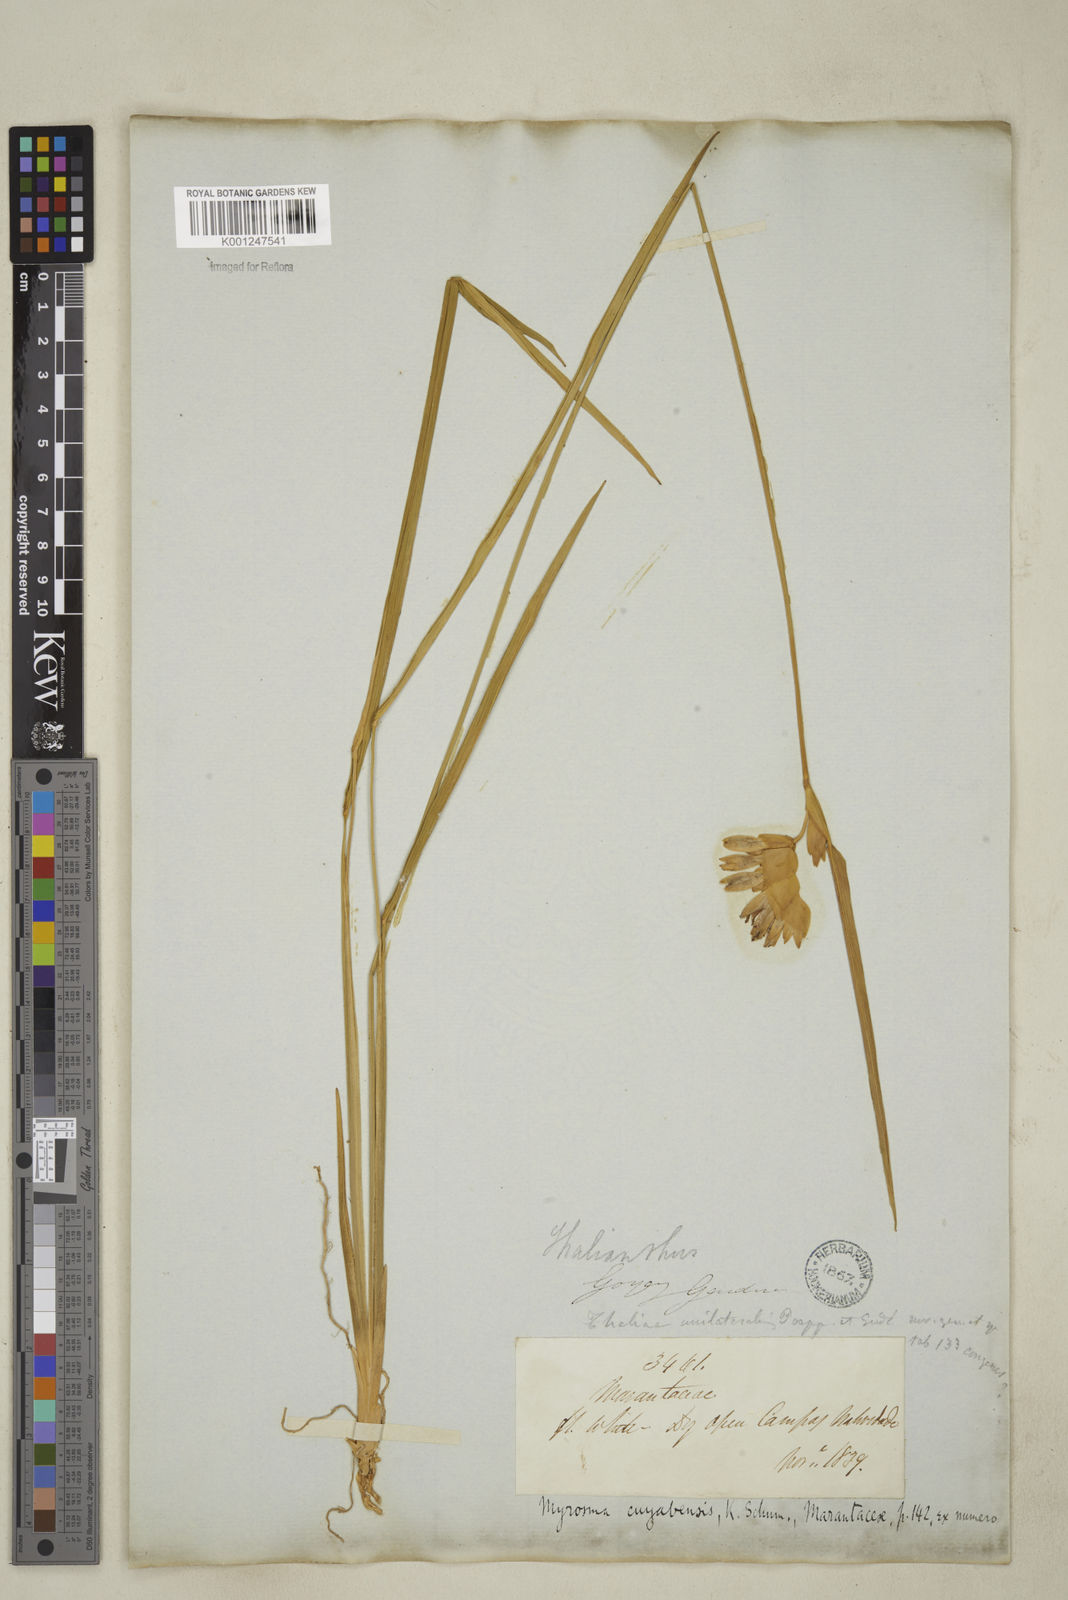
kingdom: Plantae
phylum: Tracheophyta
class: Liliopsida
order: Zingiberales
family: Marantaceae
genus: Myrosma
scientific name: Myrosma cannifolia
